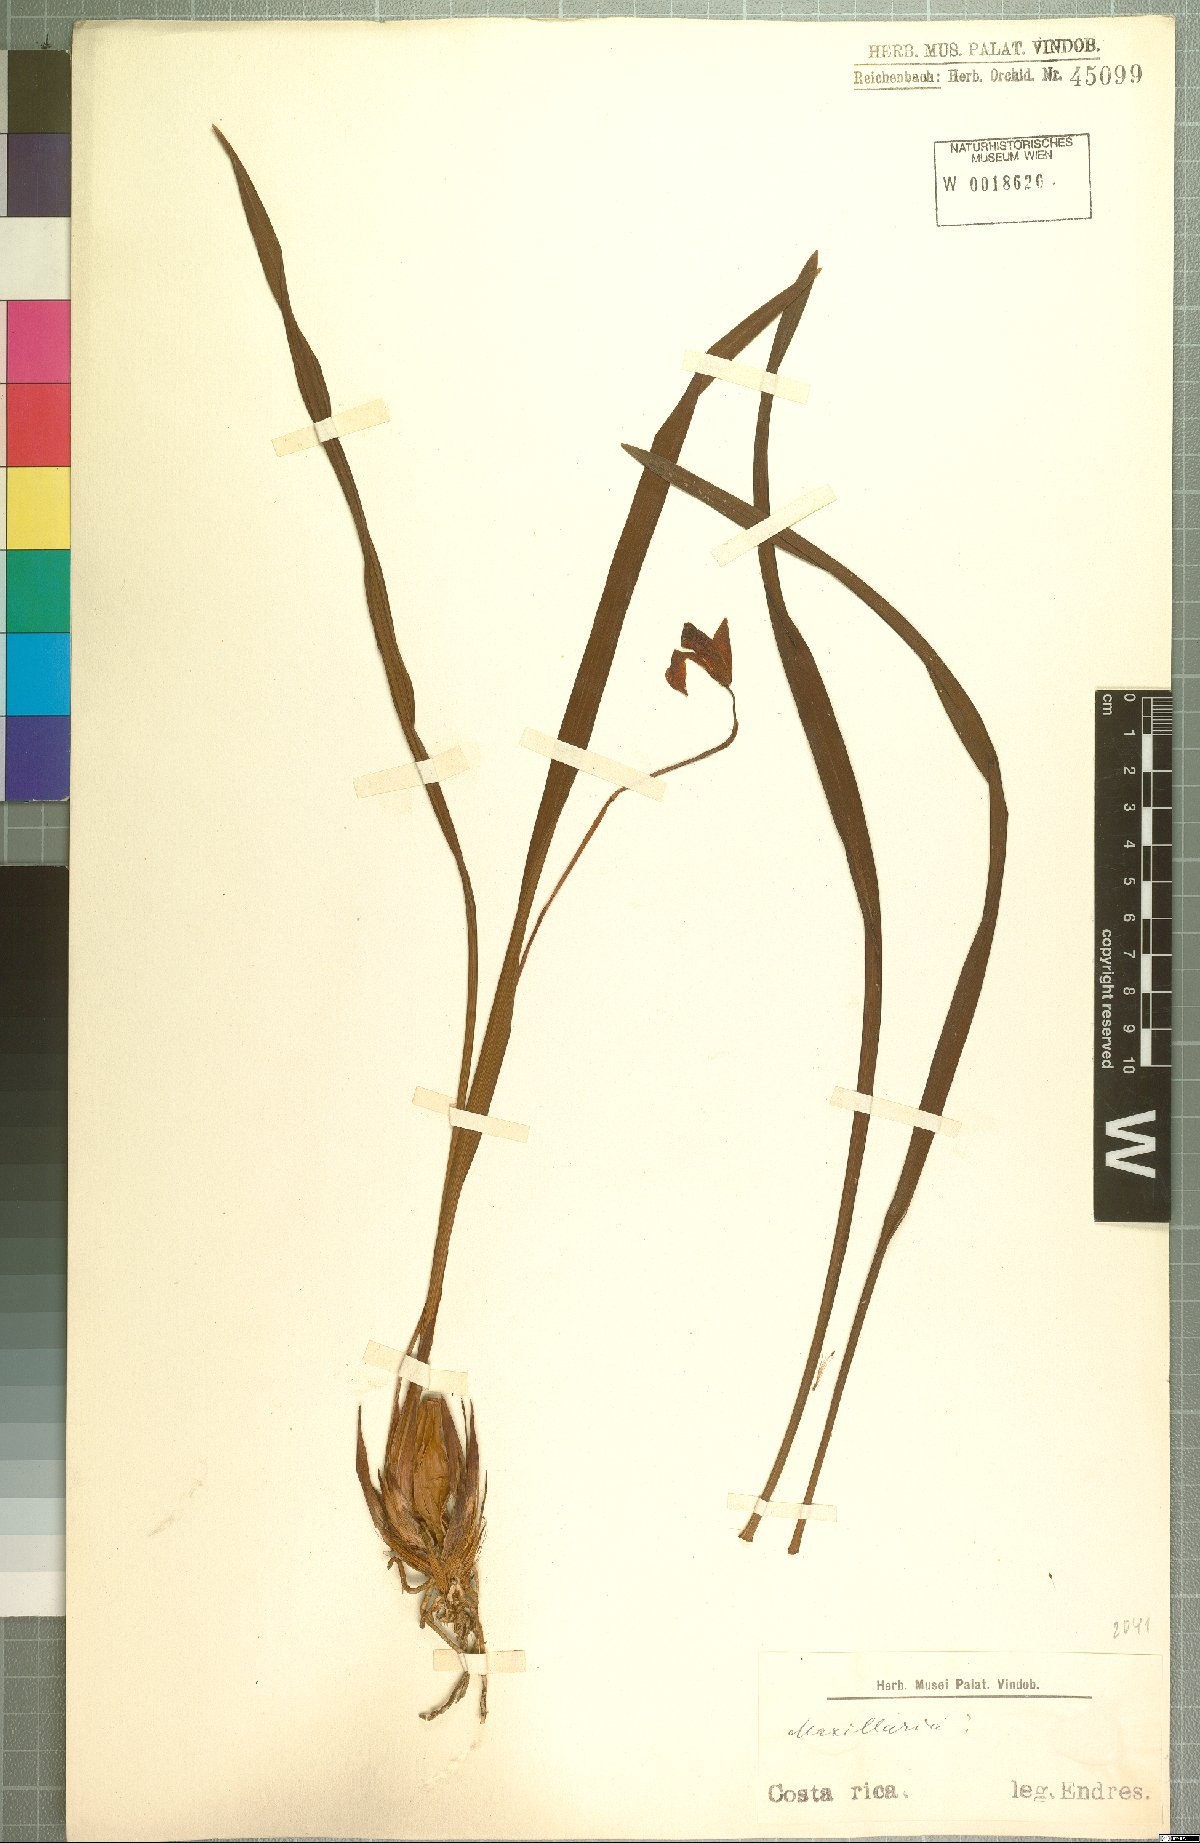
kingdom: Plantae
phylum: Tracheophyta
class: Liliopsida
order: Asparagales
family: Orchidaceae
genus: Maxillaria
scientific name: Maxillaria
